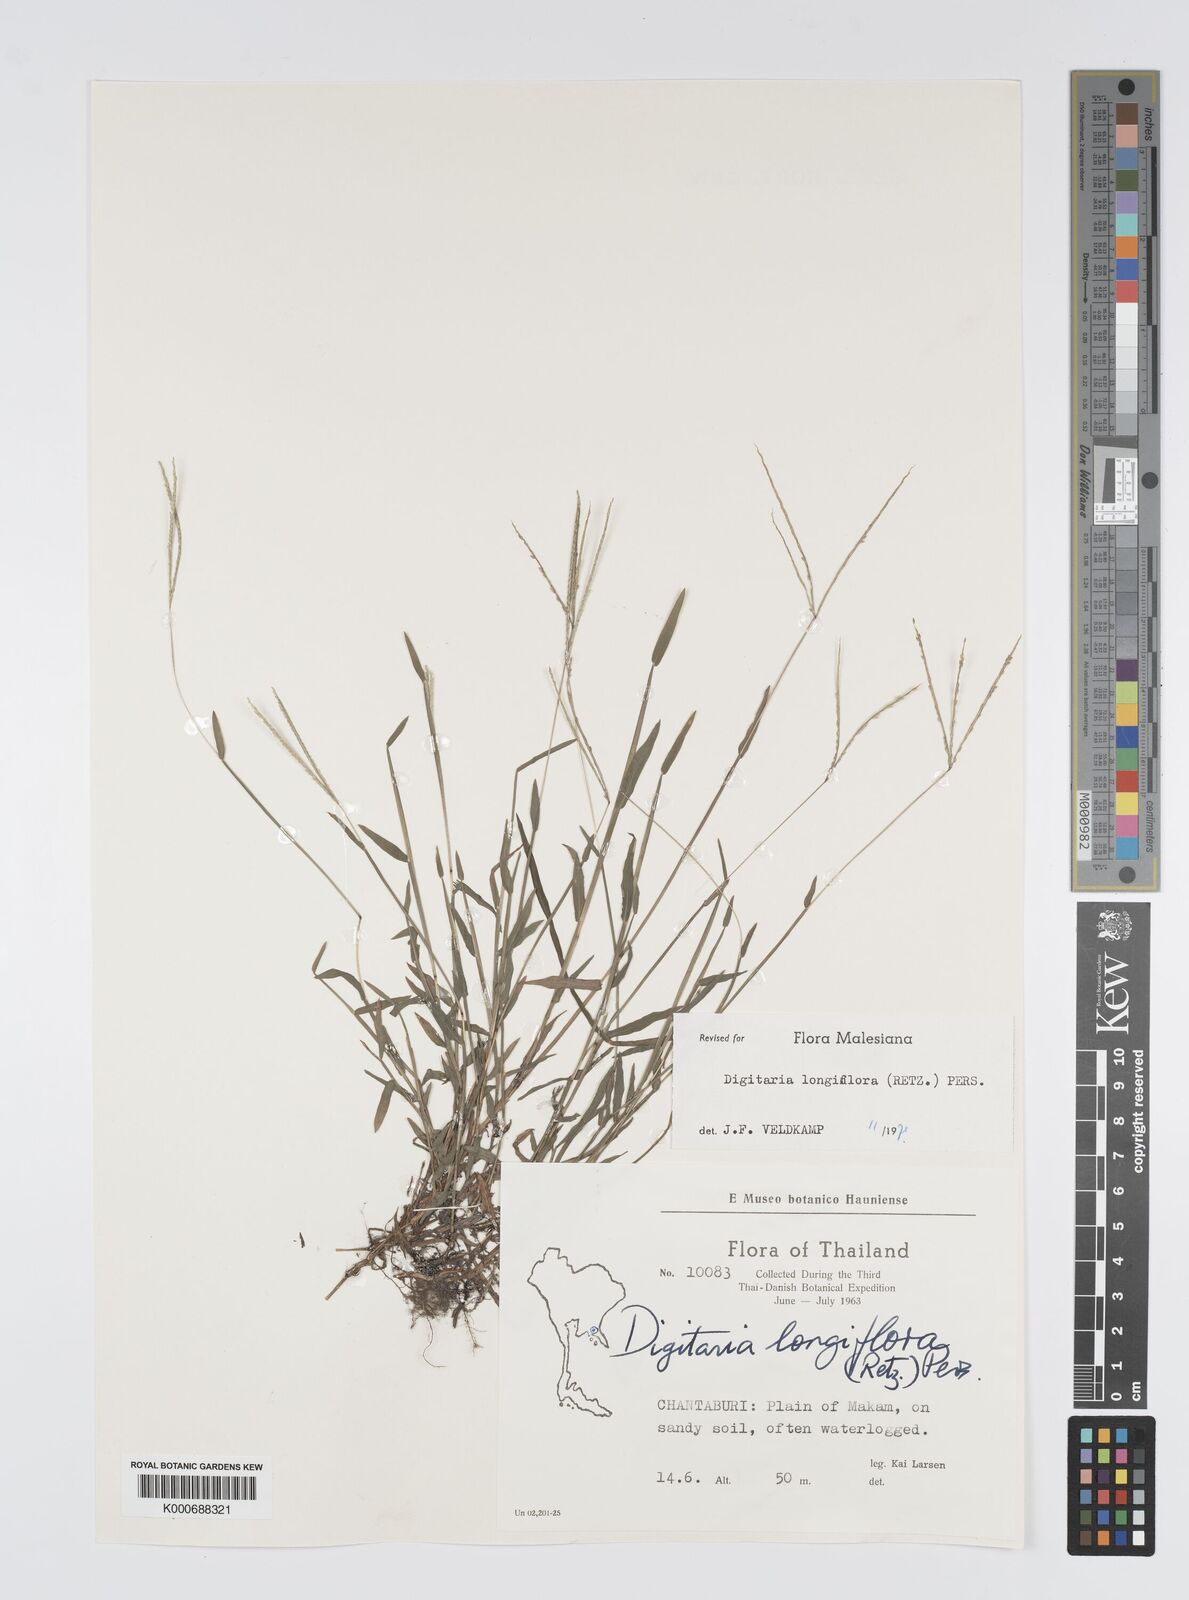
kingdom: Plantae
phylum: Tracheophyta
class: Liliopsida
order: Poales
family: Poaceae
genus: Digitaria
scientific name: Digitaria longiflora
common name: Wire crabgrass
